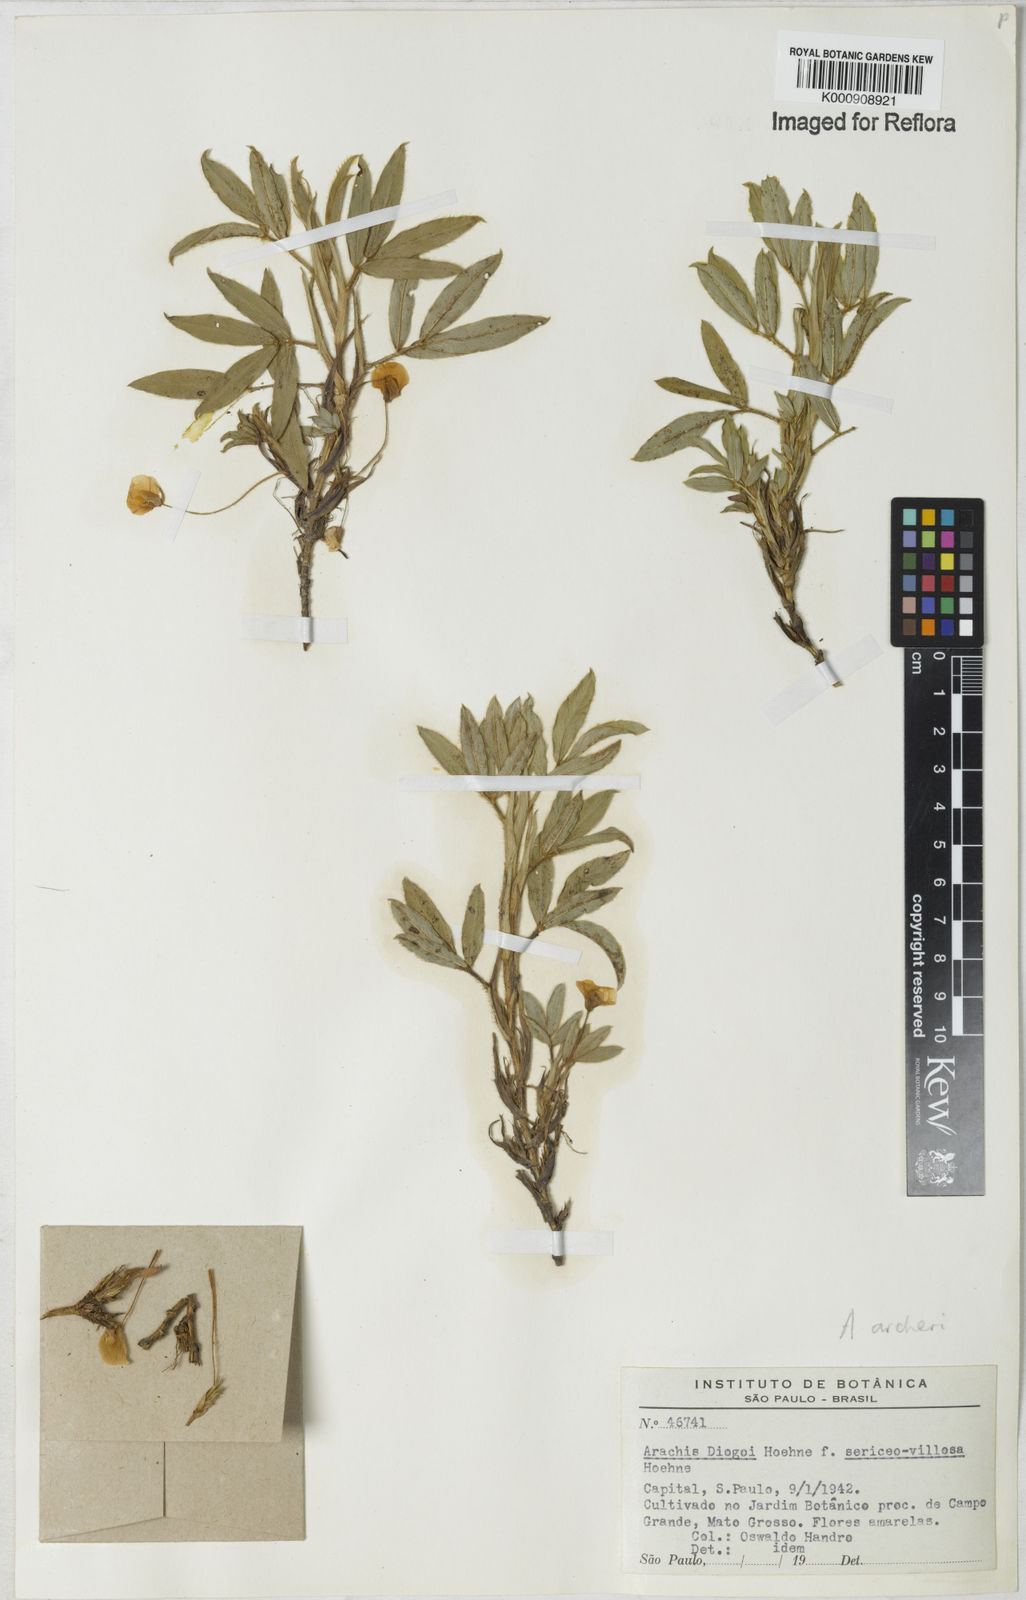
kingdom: Plantae
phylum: Tracheophyta
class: Magnoliopsida
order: Fabales
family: Fabaceae
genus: Arachis
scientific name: Arachis archeri
